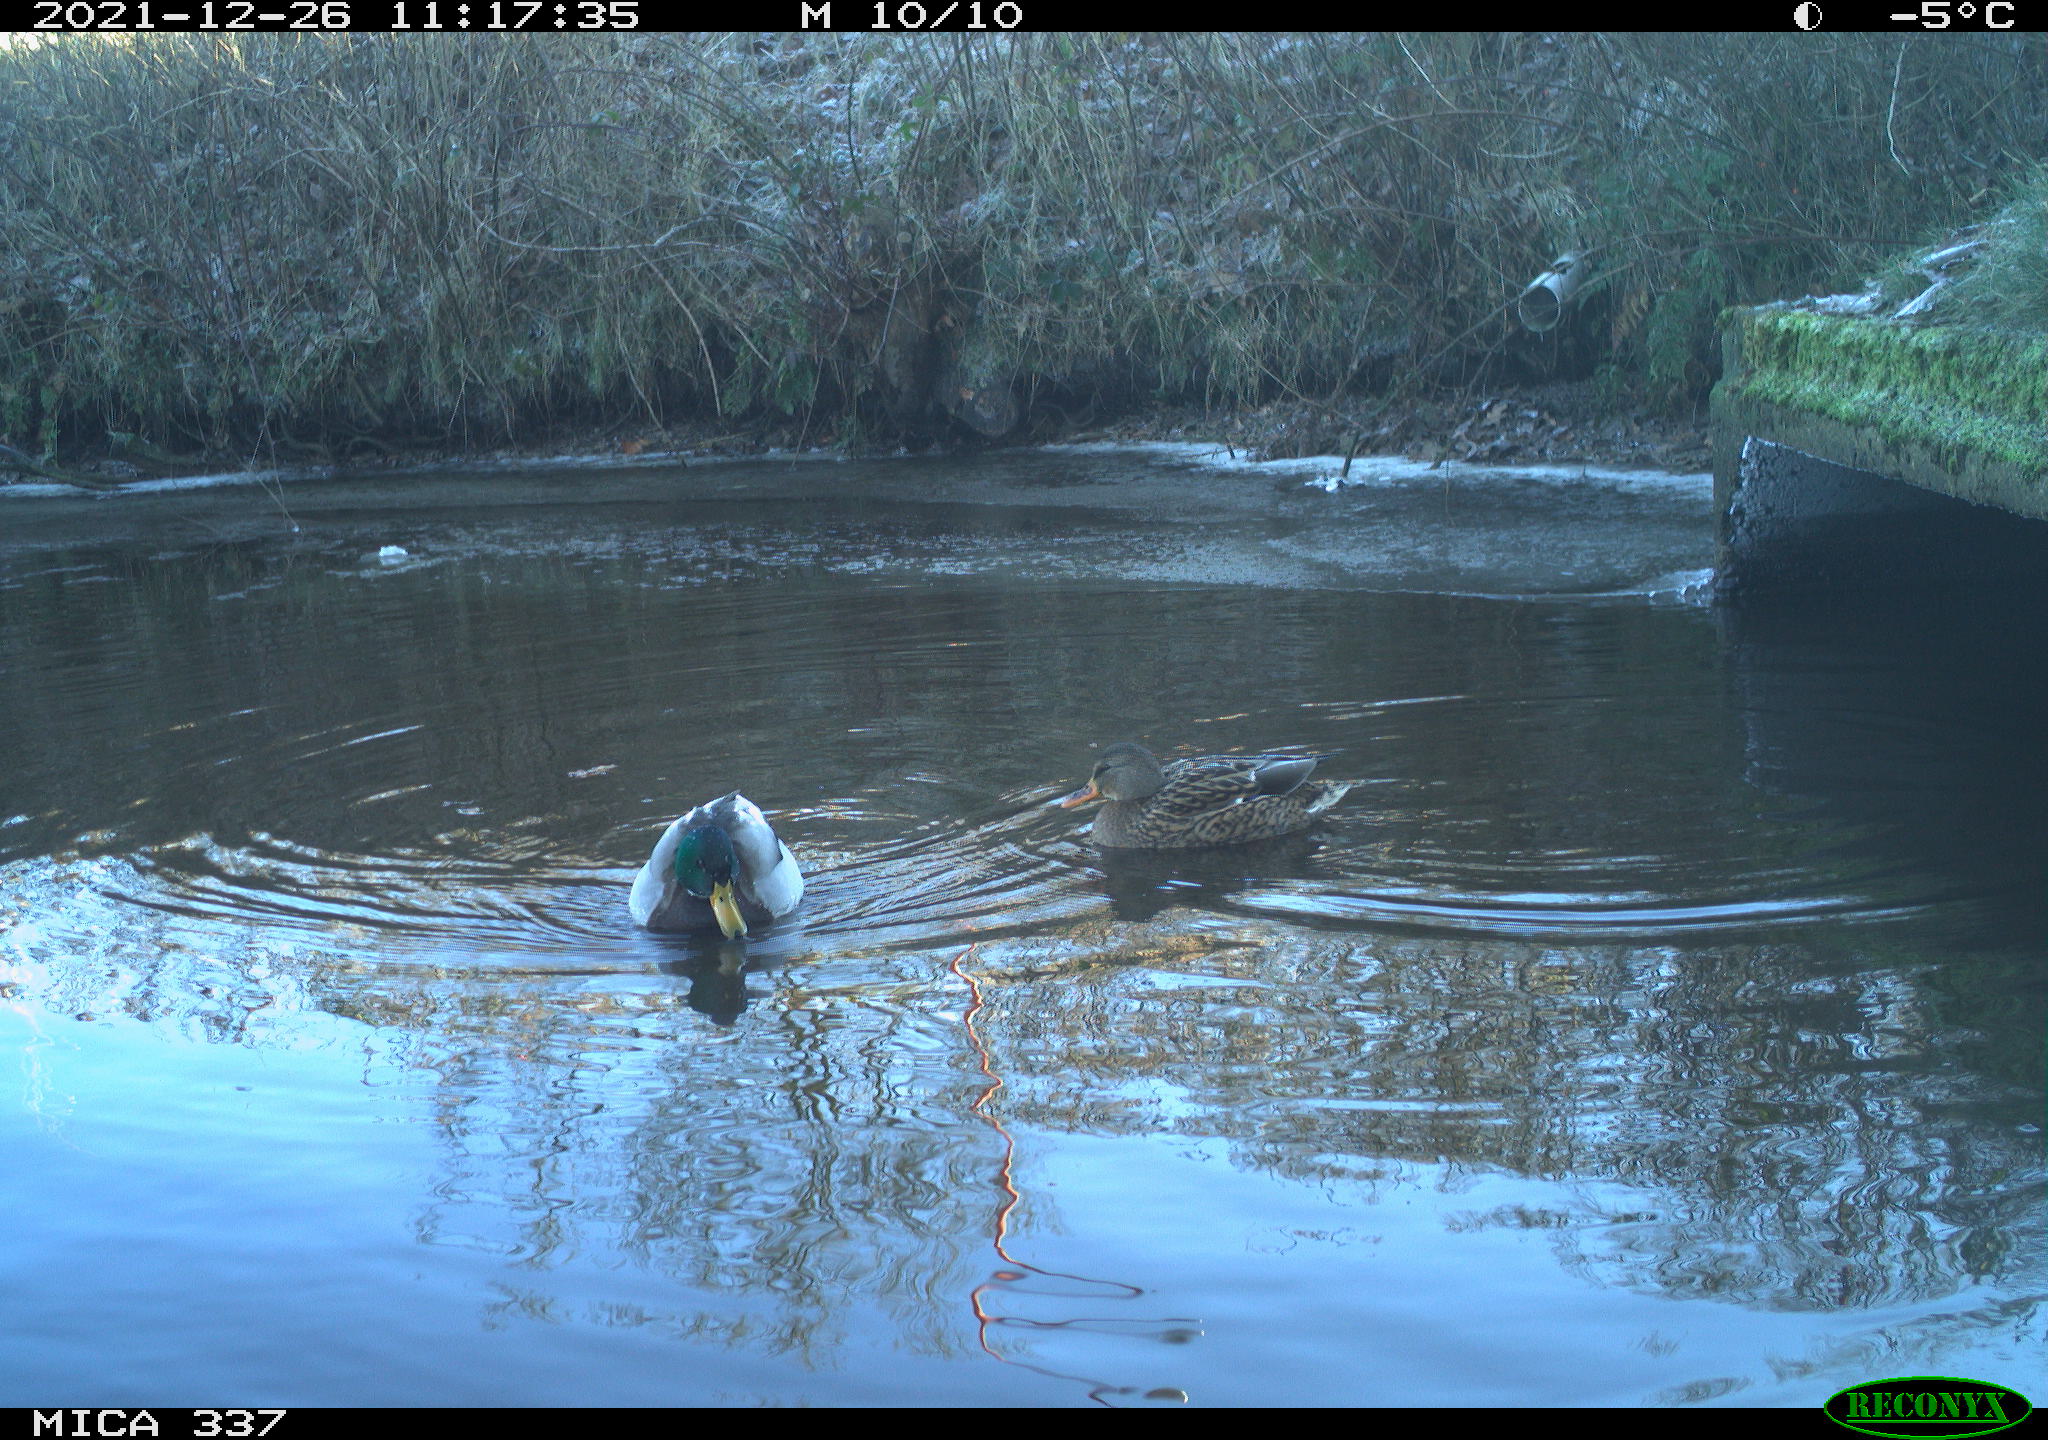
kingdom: Animalia
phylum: Chordata
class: Aves
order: Anseriformes
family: Anatidae
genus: Anas
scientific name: Anas platyrhynchos
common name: Mallard
